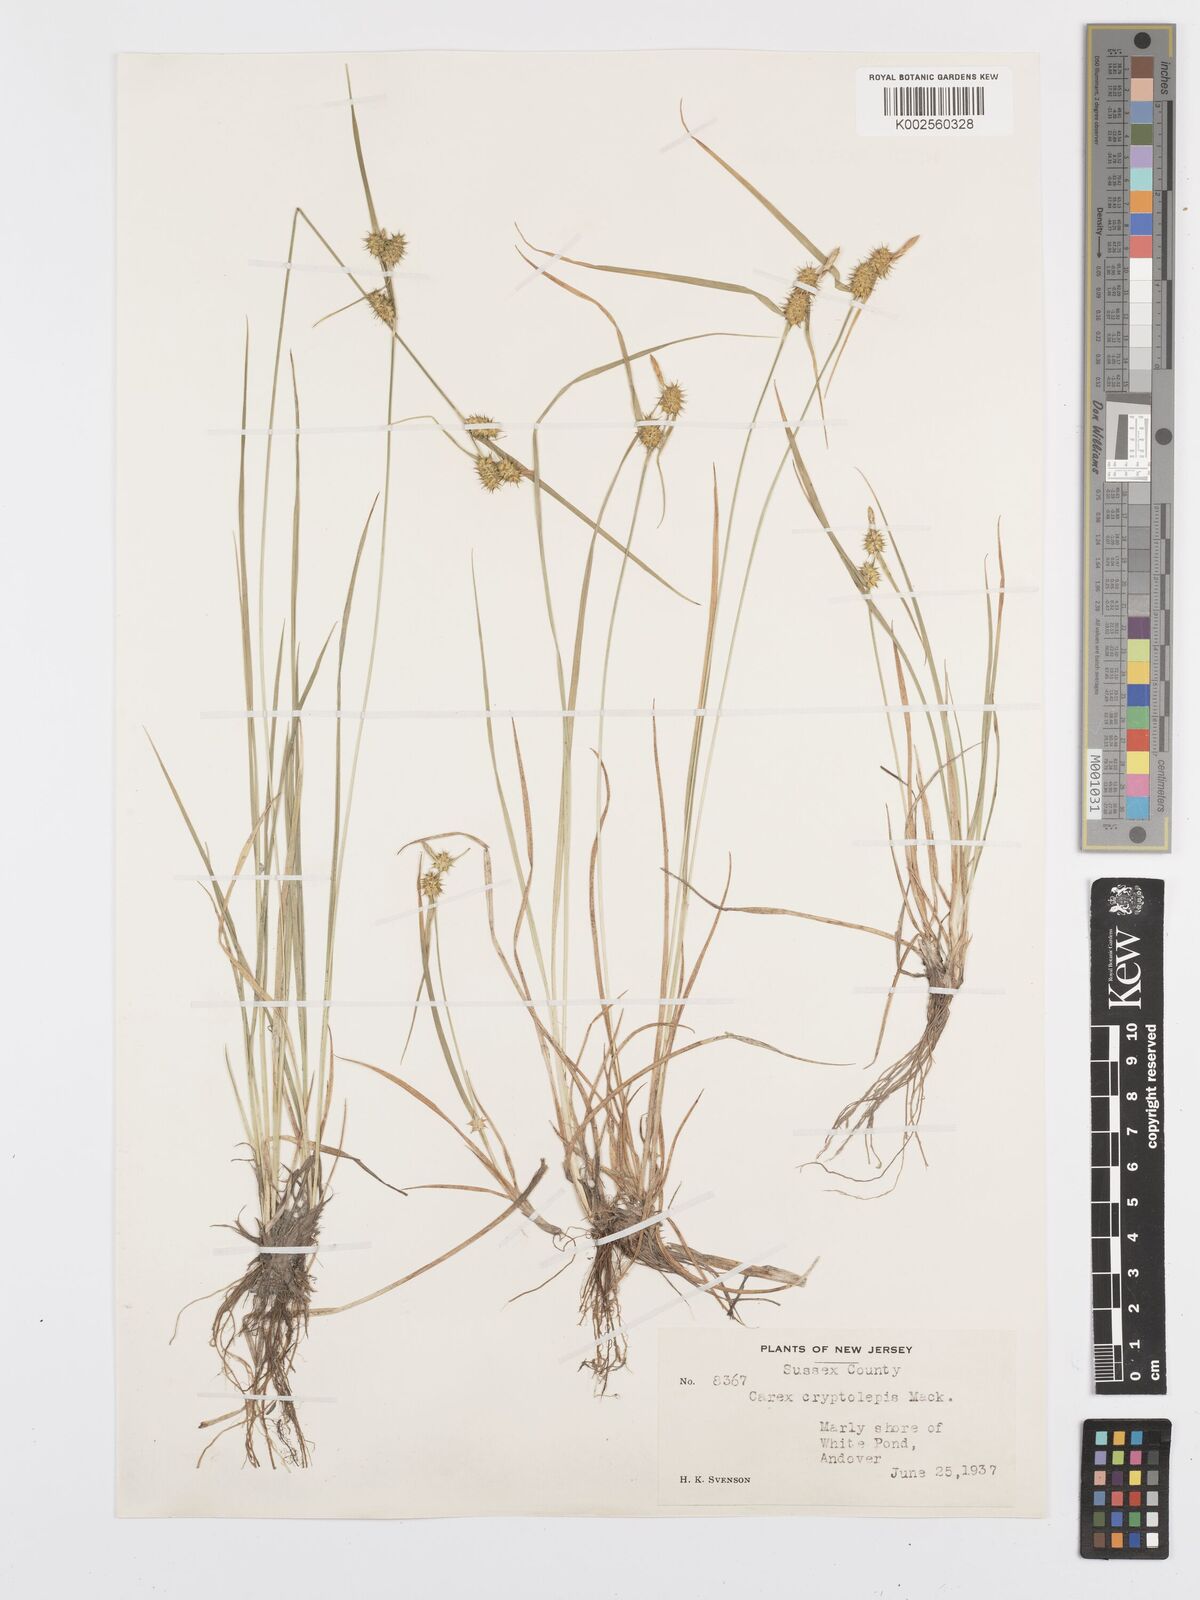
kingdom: Plantae
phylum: Tracheophyta
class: Liliopsida
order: Poales
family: Cyperaceae
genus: Carex
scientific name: Carex flava
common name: Large yellow-sedge
